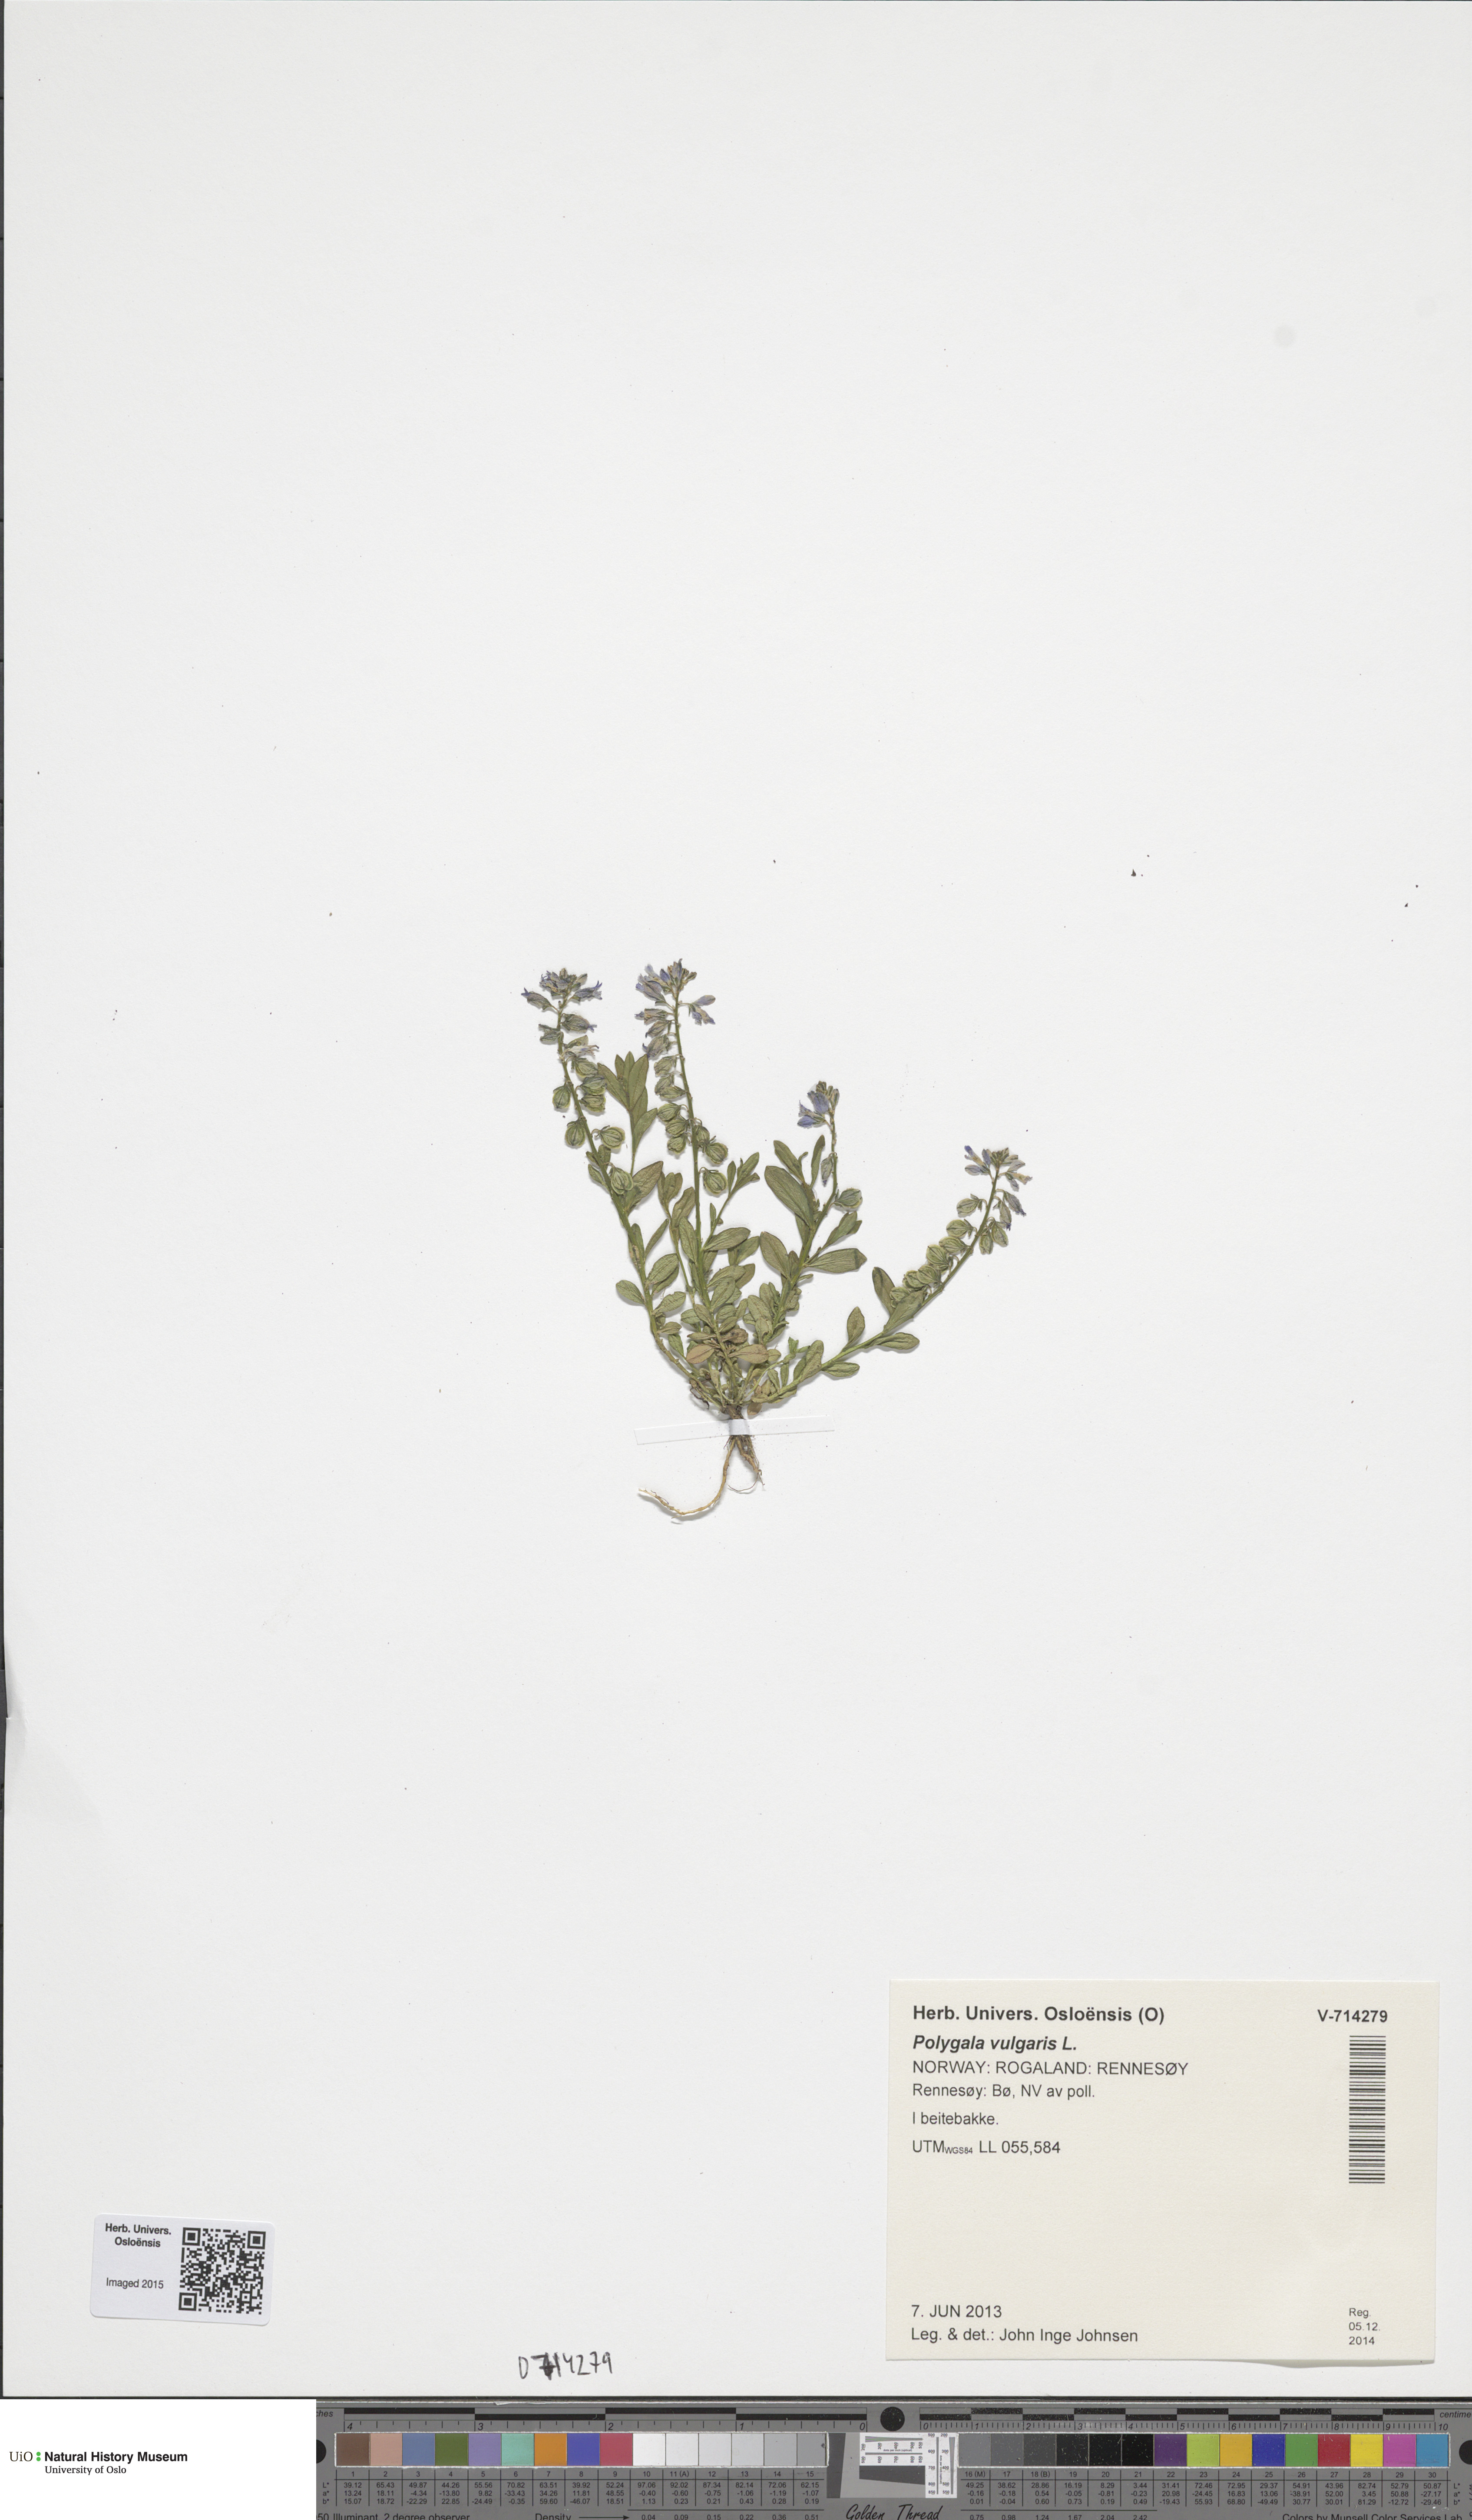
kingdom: Plantae
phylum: Tracheophyta
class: Magnoliopsida
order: Fabales
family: Polygalaceae
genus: Polygala
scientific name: Polygala vulgaris
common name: Common milkwort
